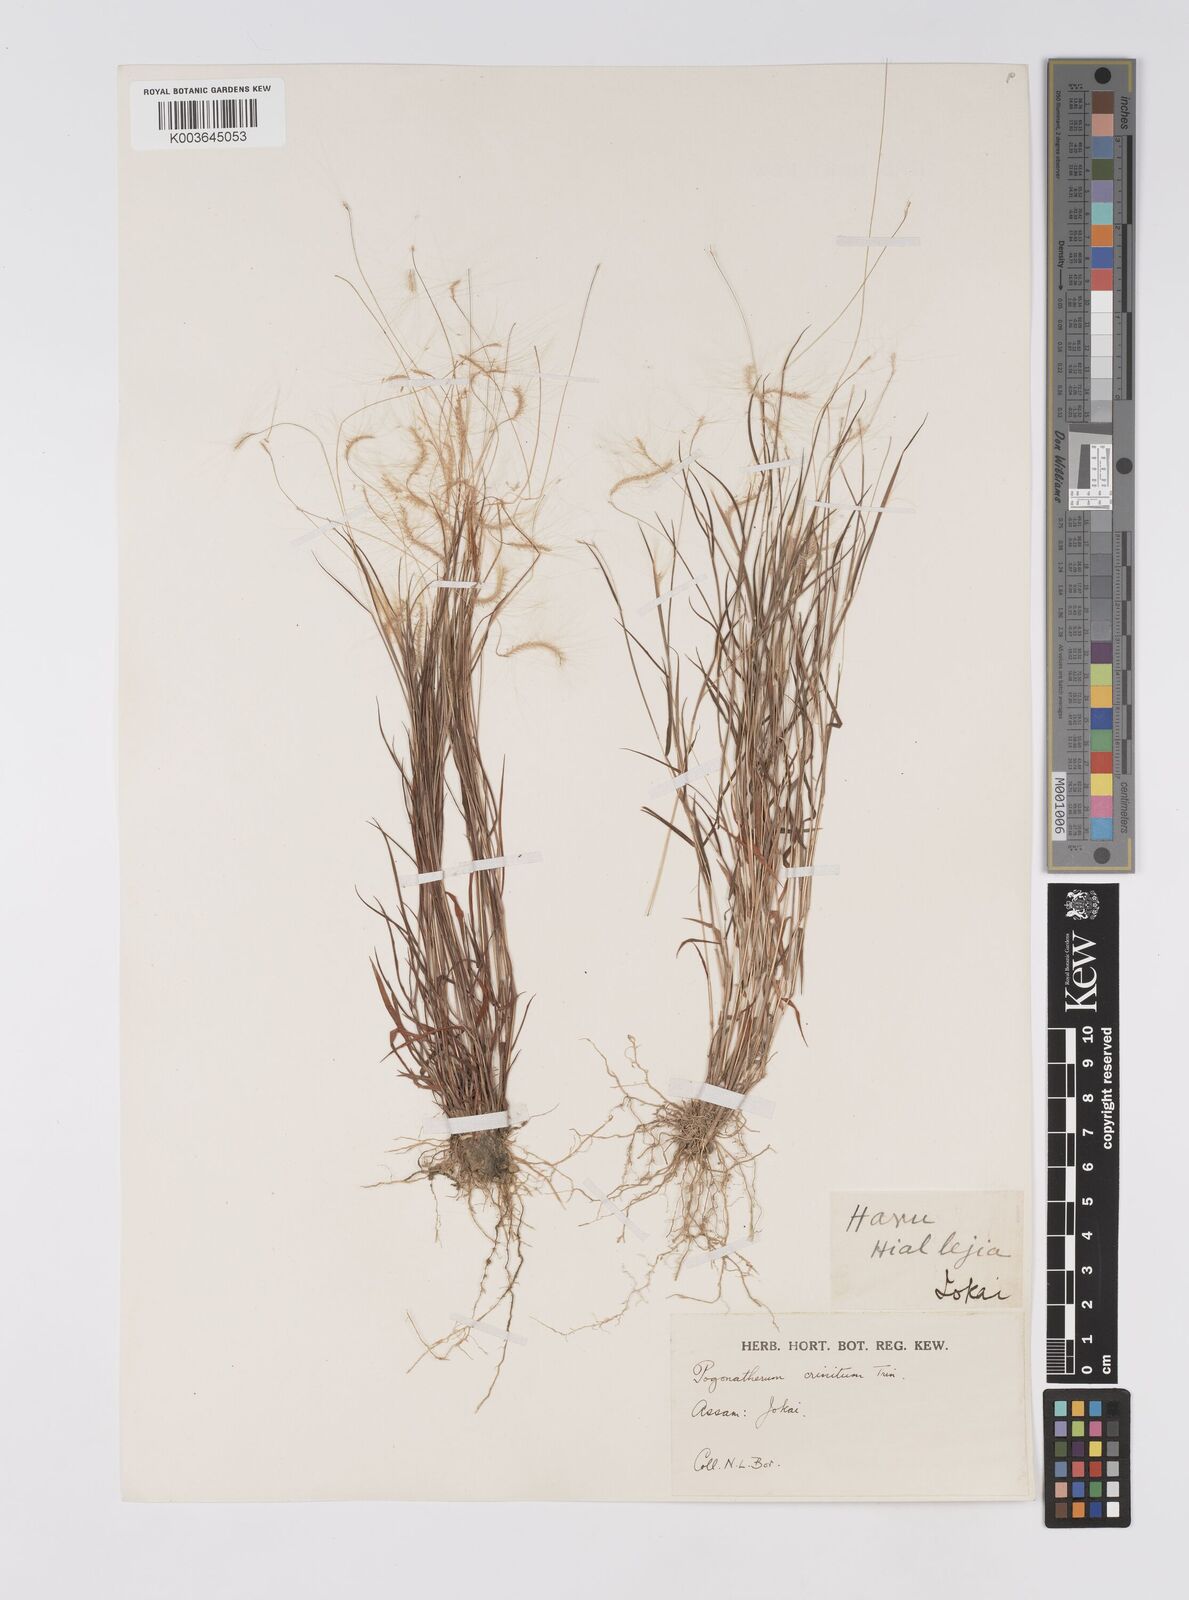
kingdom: Plantae
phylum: Tracheophyta
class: Liliopsida
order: Poales
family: Poaceae
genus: Pogonatherum
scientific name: Pogonatherum crinitum
